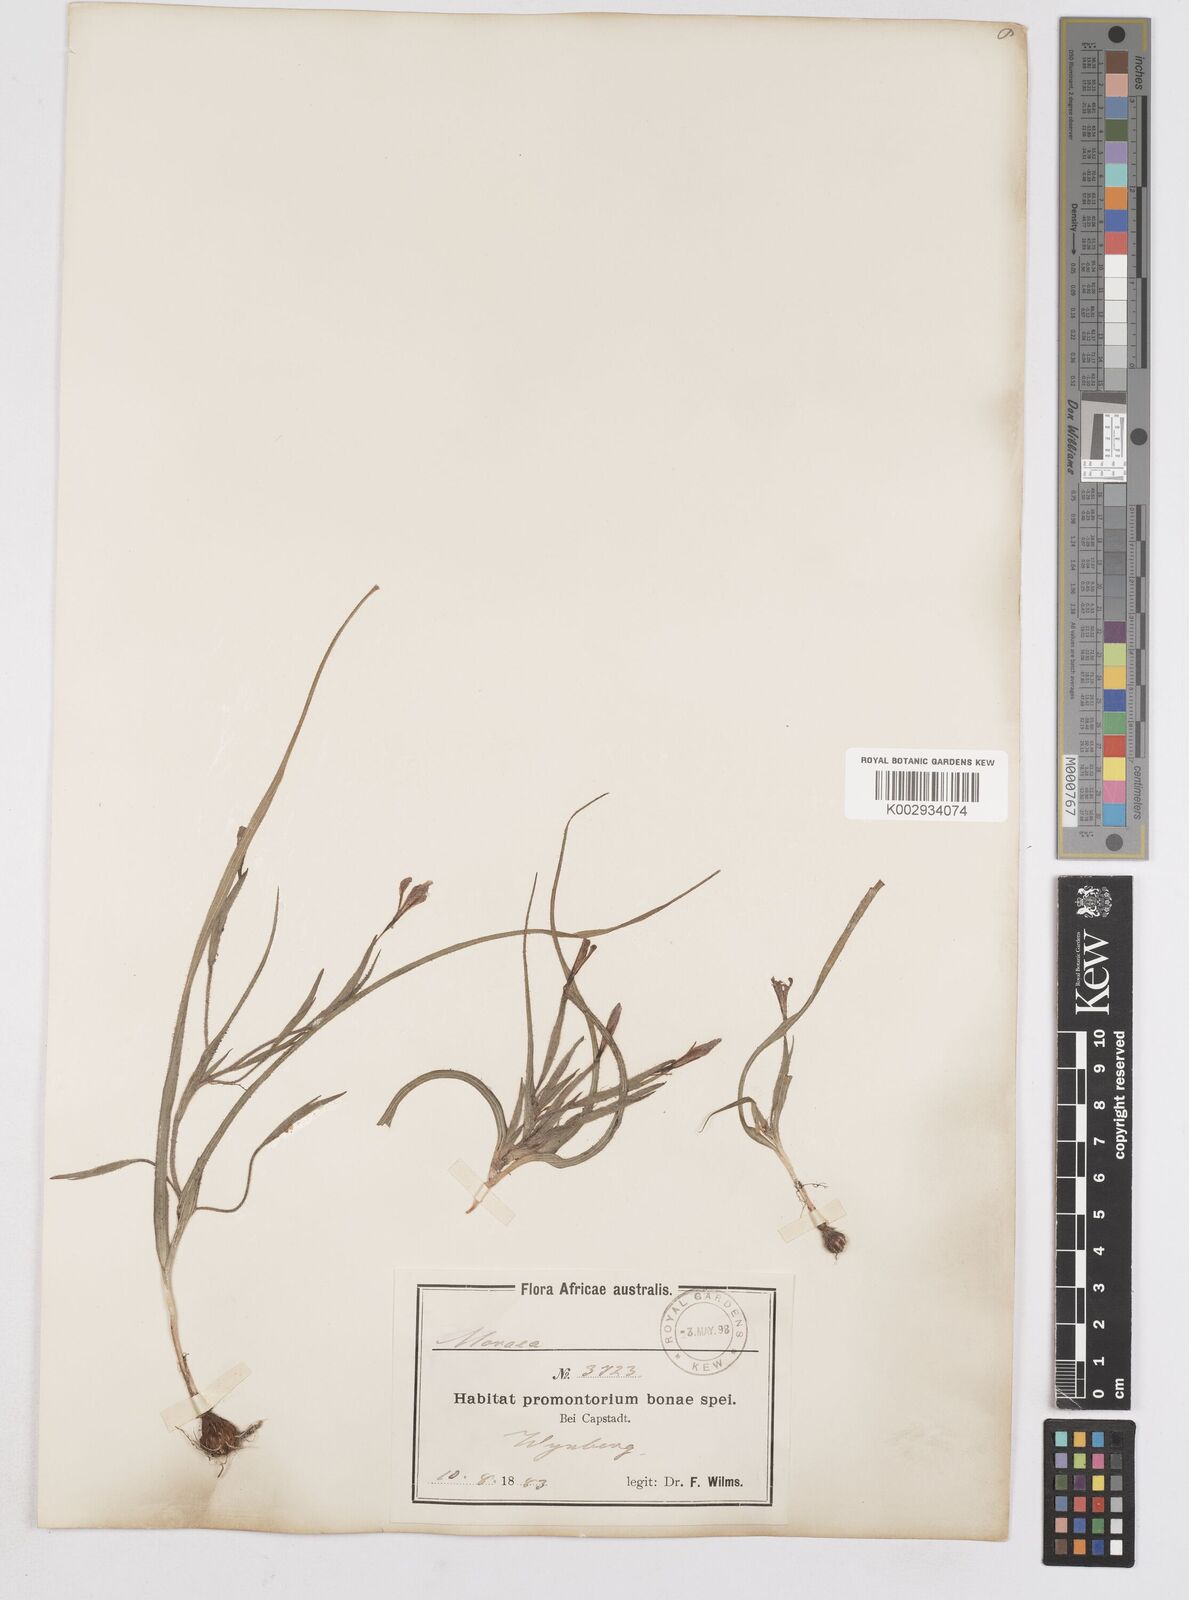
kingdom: Plantae
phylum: Tracheophyta
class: Liliopsida
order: Asparagales
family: Iridaceae
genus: Moraea
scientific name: Moraea papilionacea
